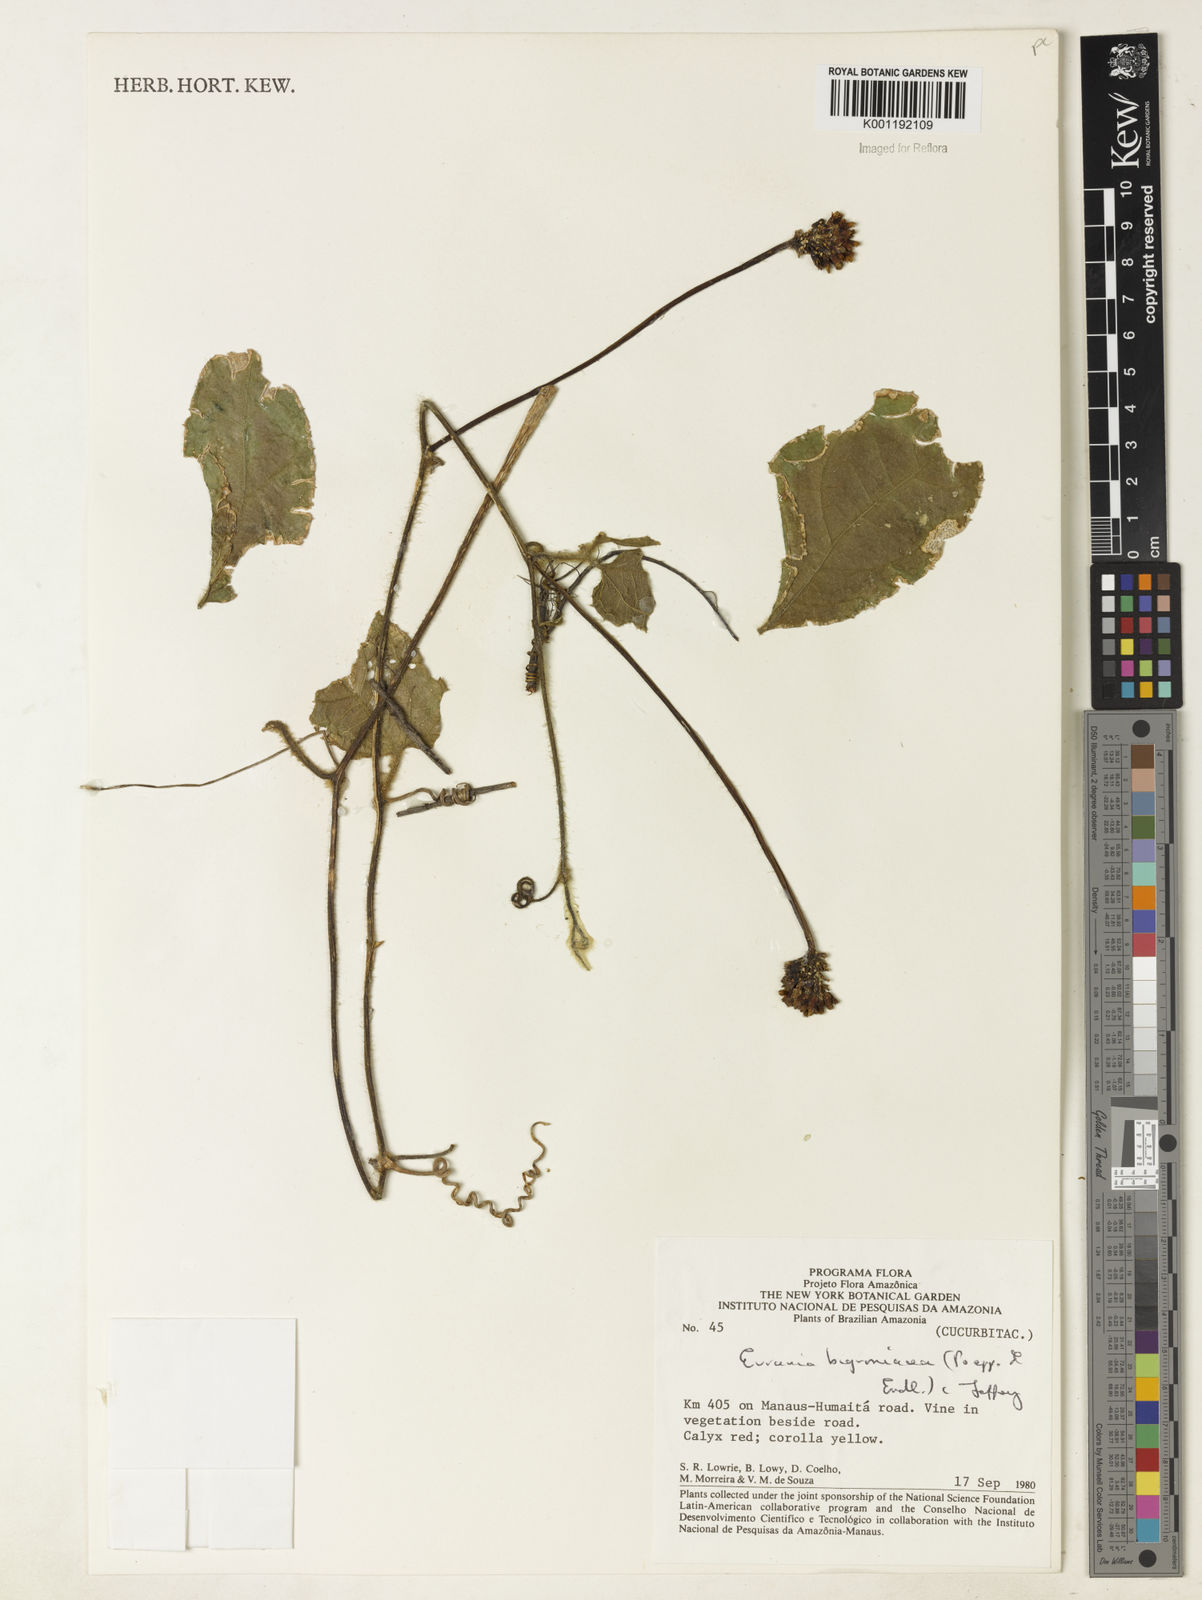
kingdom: Plantae
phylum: Tracheophyta
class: Magnoliopsida
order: Cucurbitales
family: Cucurbitaceae
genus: Gurania
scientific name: Gurania bignoniacea
